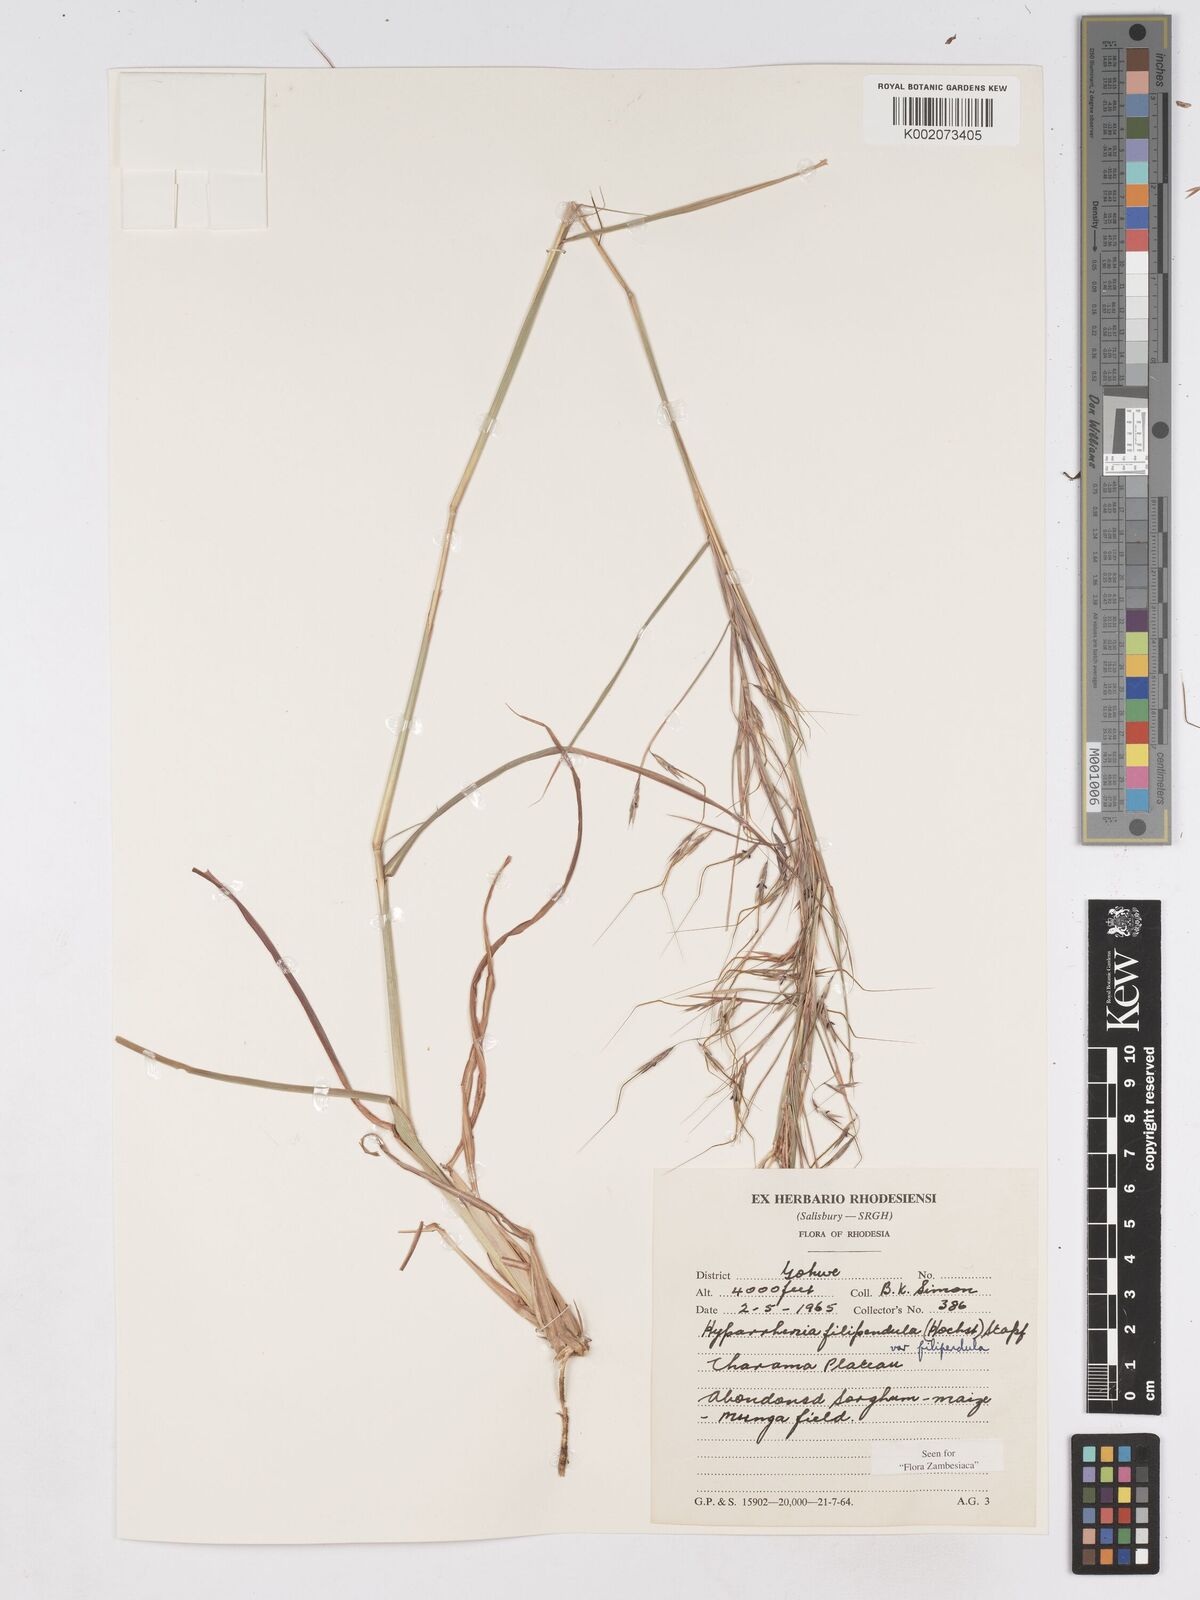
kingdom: Plantae
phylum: Tracheophyta
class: Liliopsida
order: Poales
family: Poaceae
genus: Hyparrhenia
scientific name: Hyparrhenia filipendula
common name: Tambookie grass
